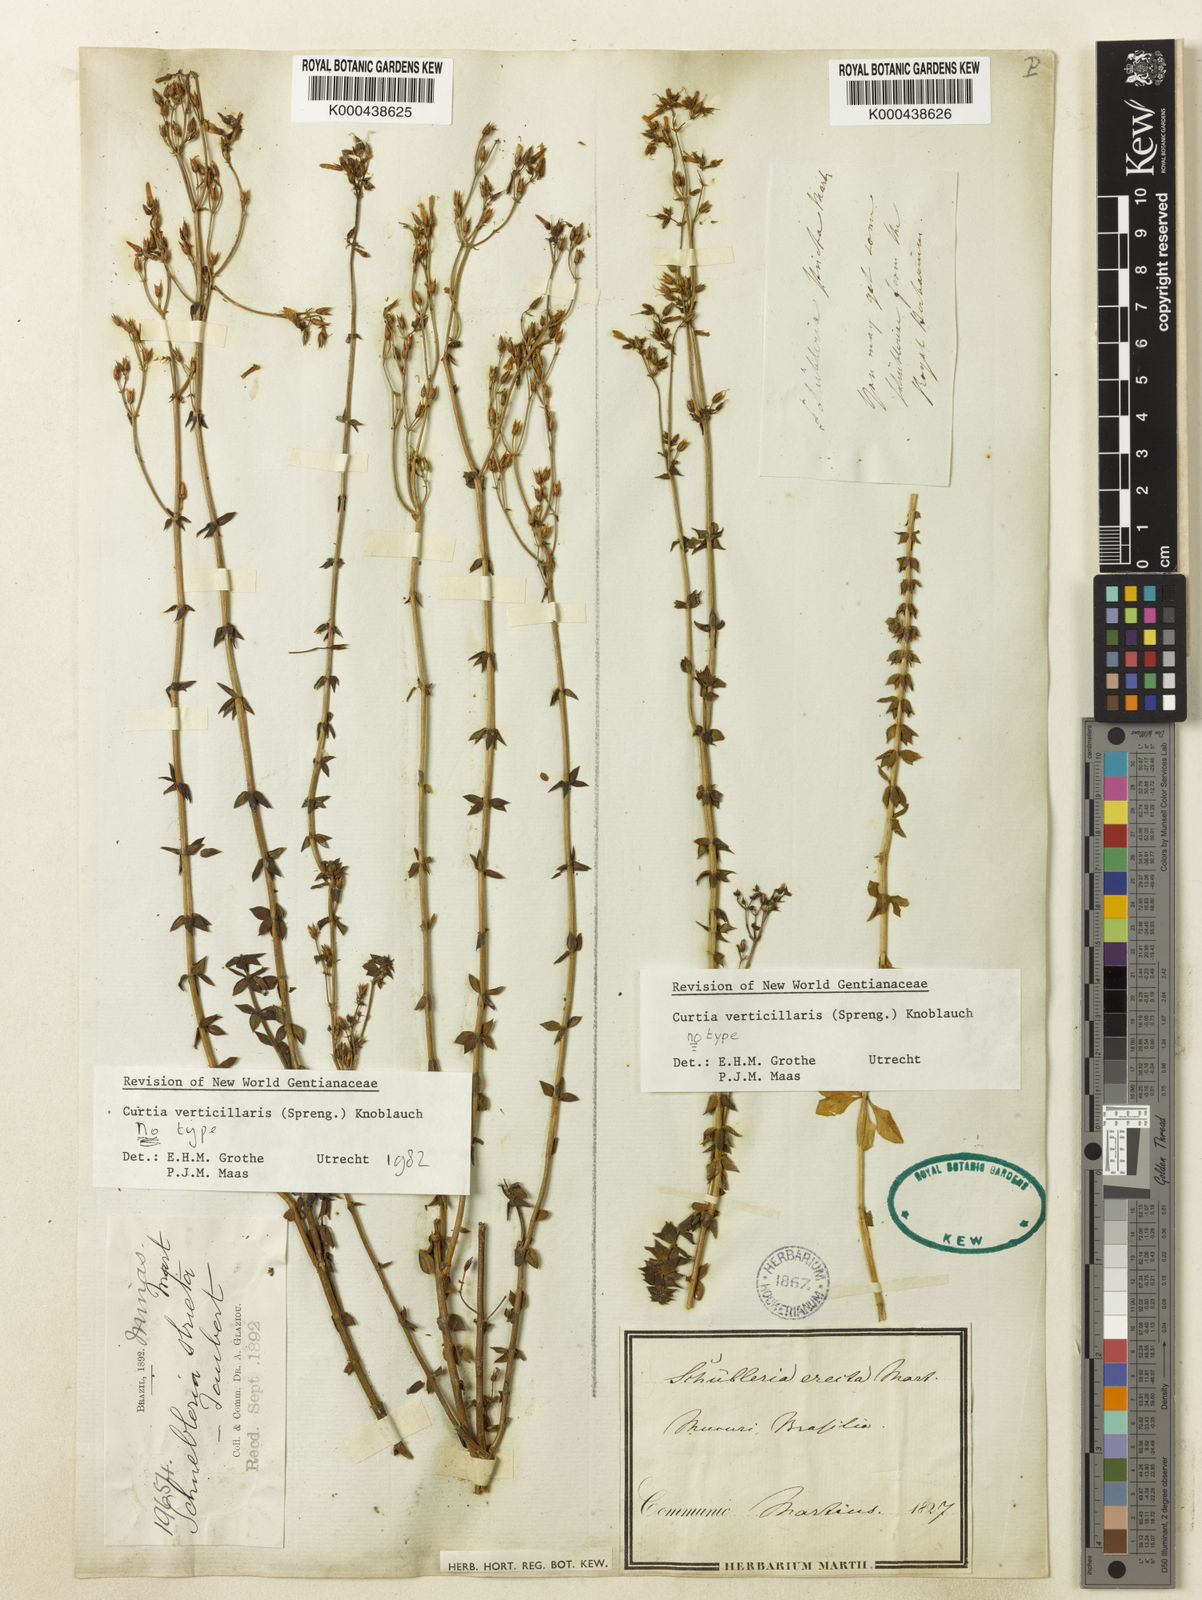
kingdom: Plantae
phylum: Tracheophyta
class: Magnoliopsida
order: Gentianales
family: Gentianaceae
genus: Curtia
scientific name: Curtia verticillaris
